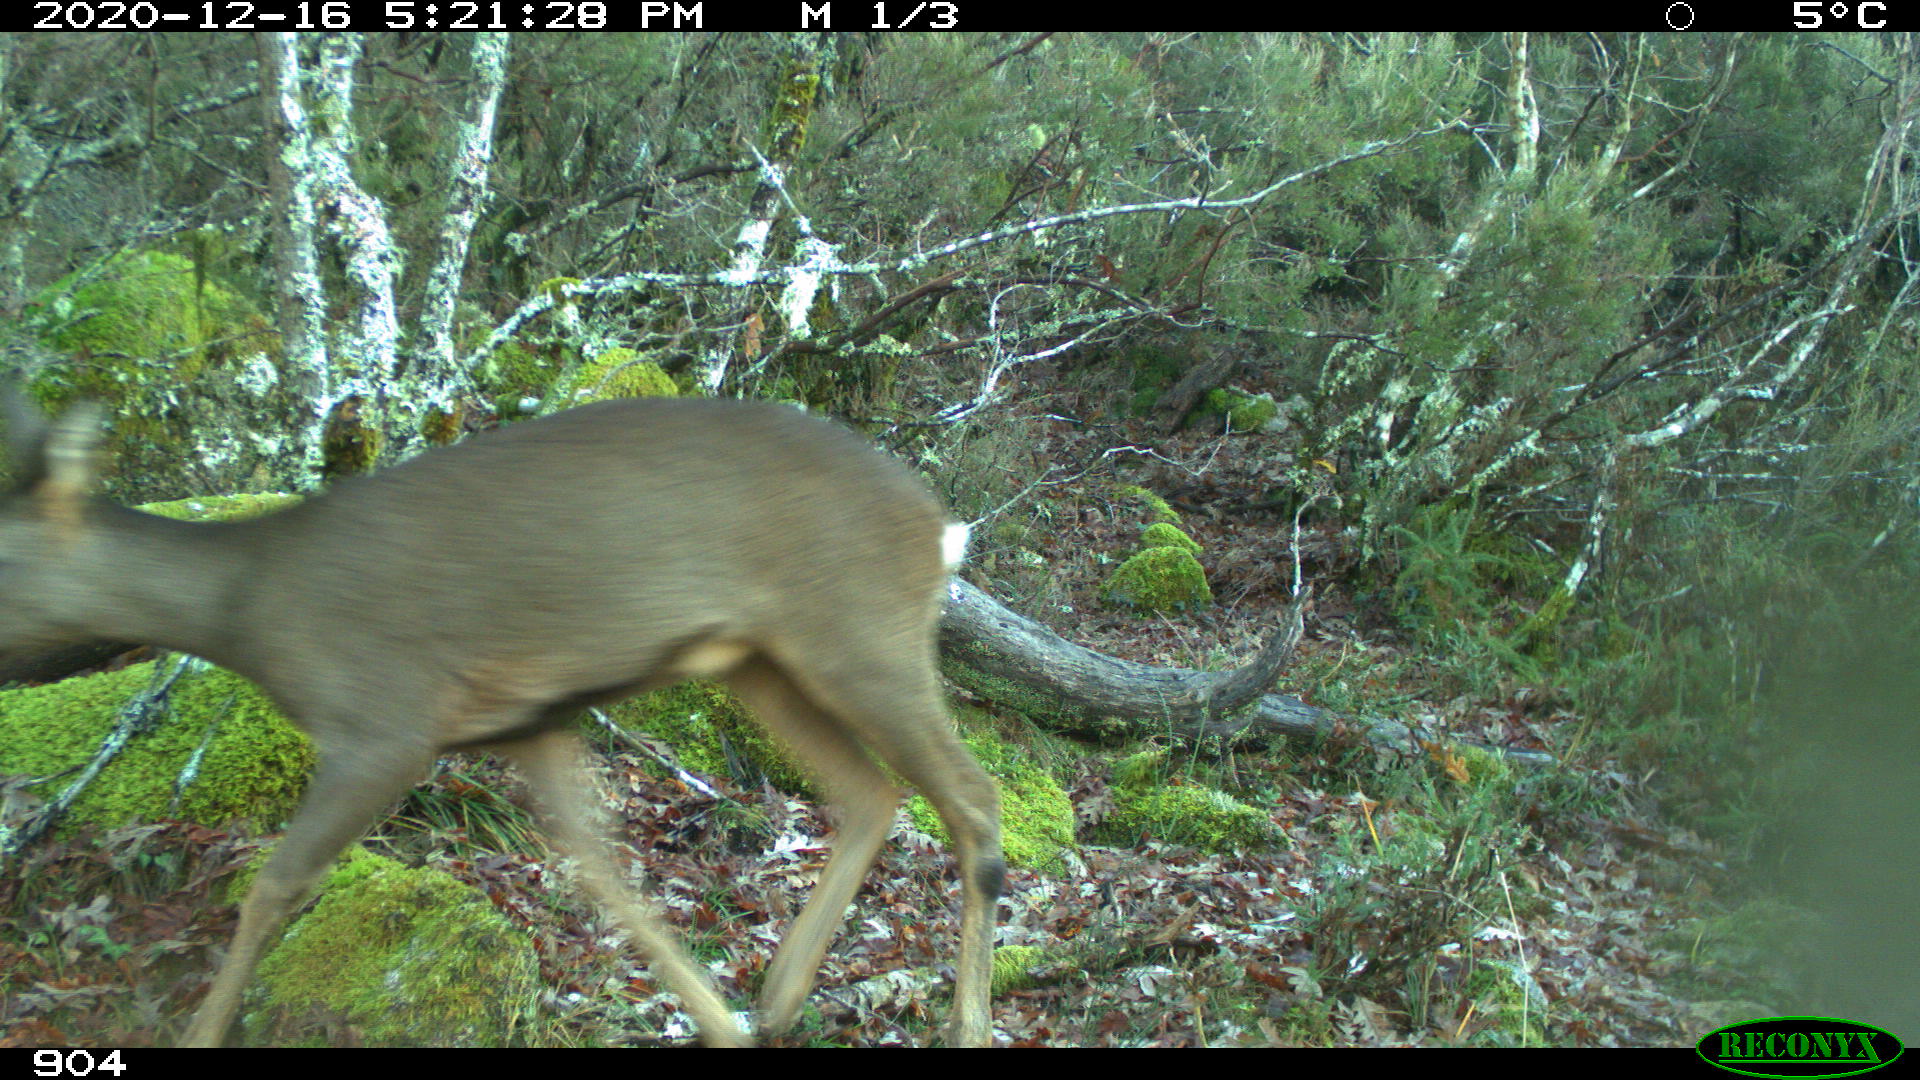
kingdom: Animalia
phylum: Chordata
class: Mammalia
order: Artiodactyla
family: Cervidae
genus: Capreolus
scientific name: Capreolus capreolus
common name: Western roe deer
